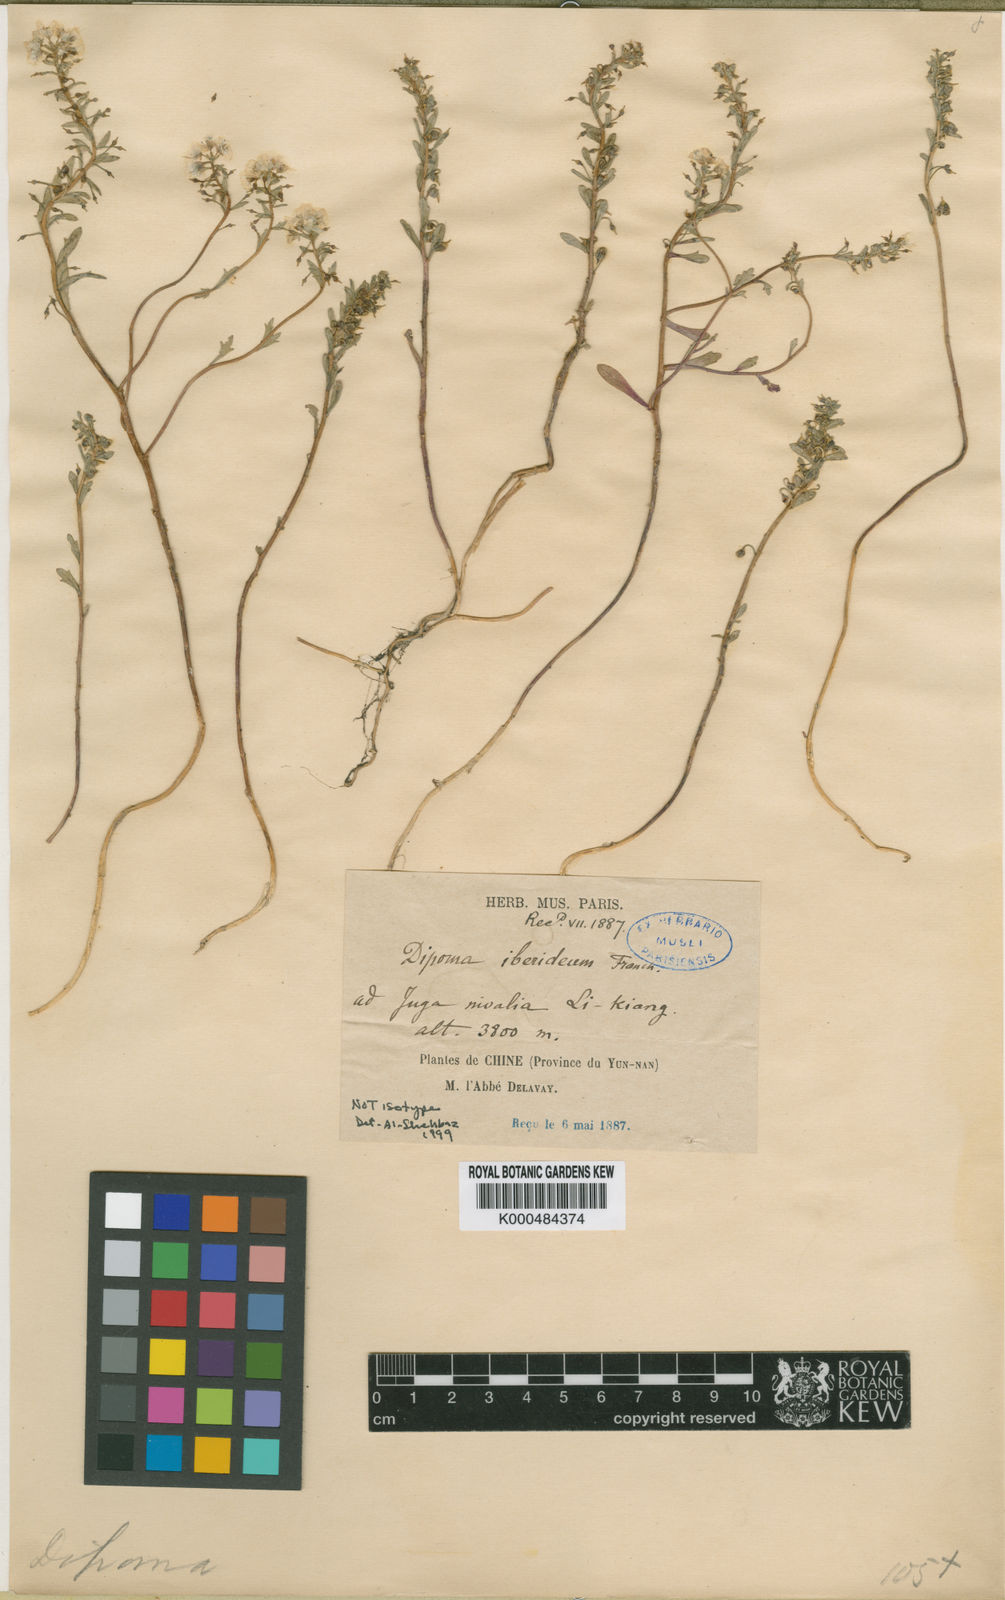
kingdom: Plantae
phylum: Tracheophyta
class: Magnoliopsida
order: Brassicales
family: Brassicaceae
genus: Dipoma
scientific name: Dipoma iberideum
